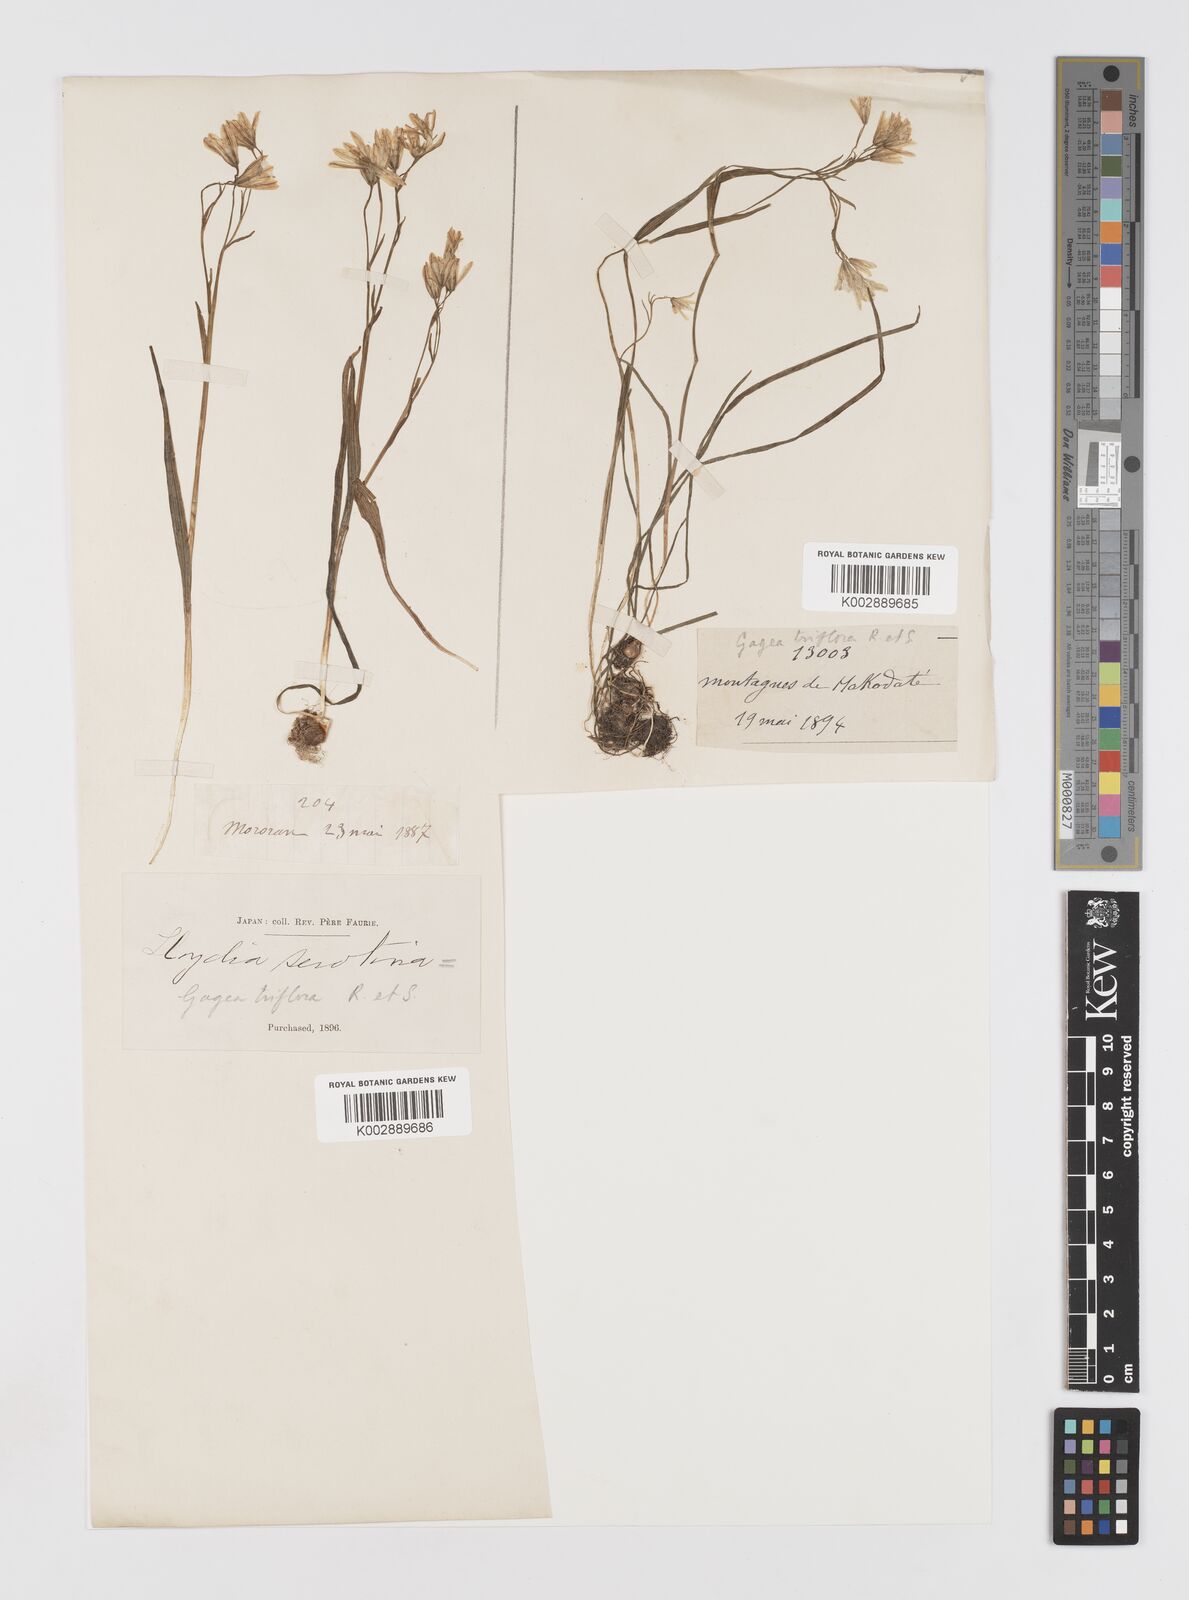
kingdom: Plantae
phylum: Tracheophyta
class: Liliopsida
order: Liliales
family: Liliaceae
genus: Gagea
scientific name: Gagea triflora
